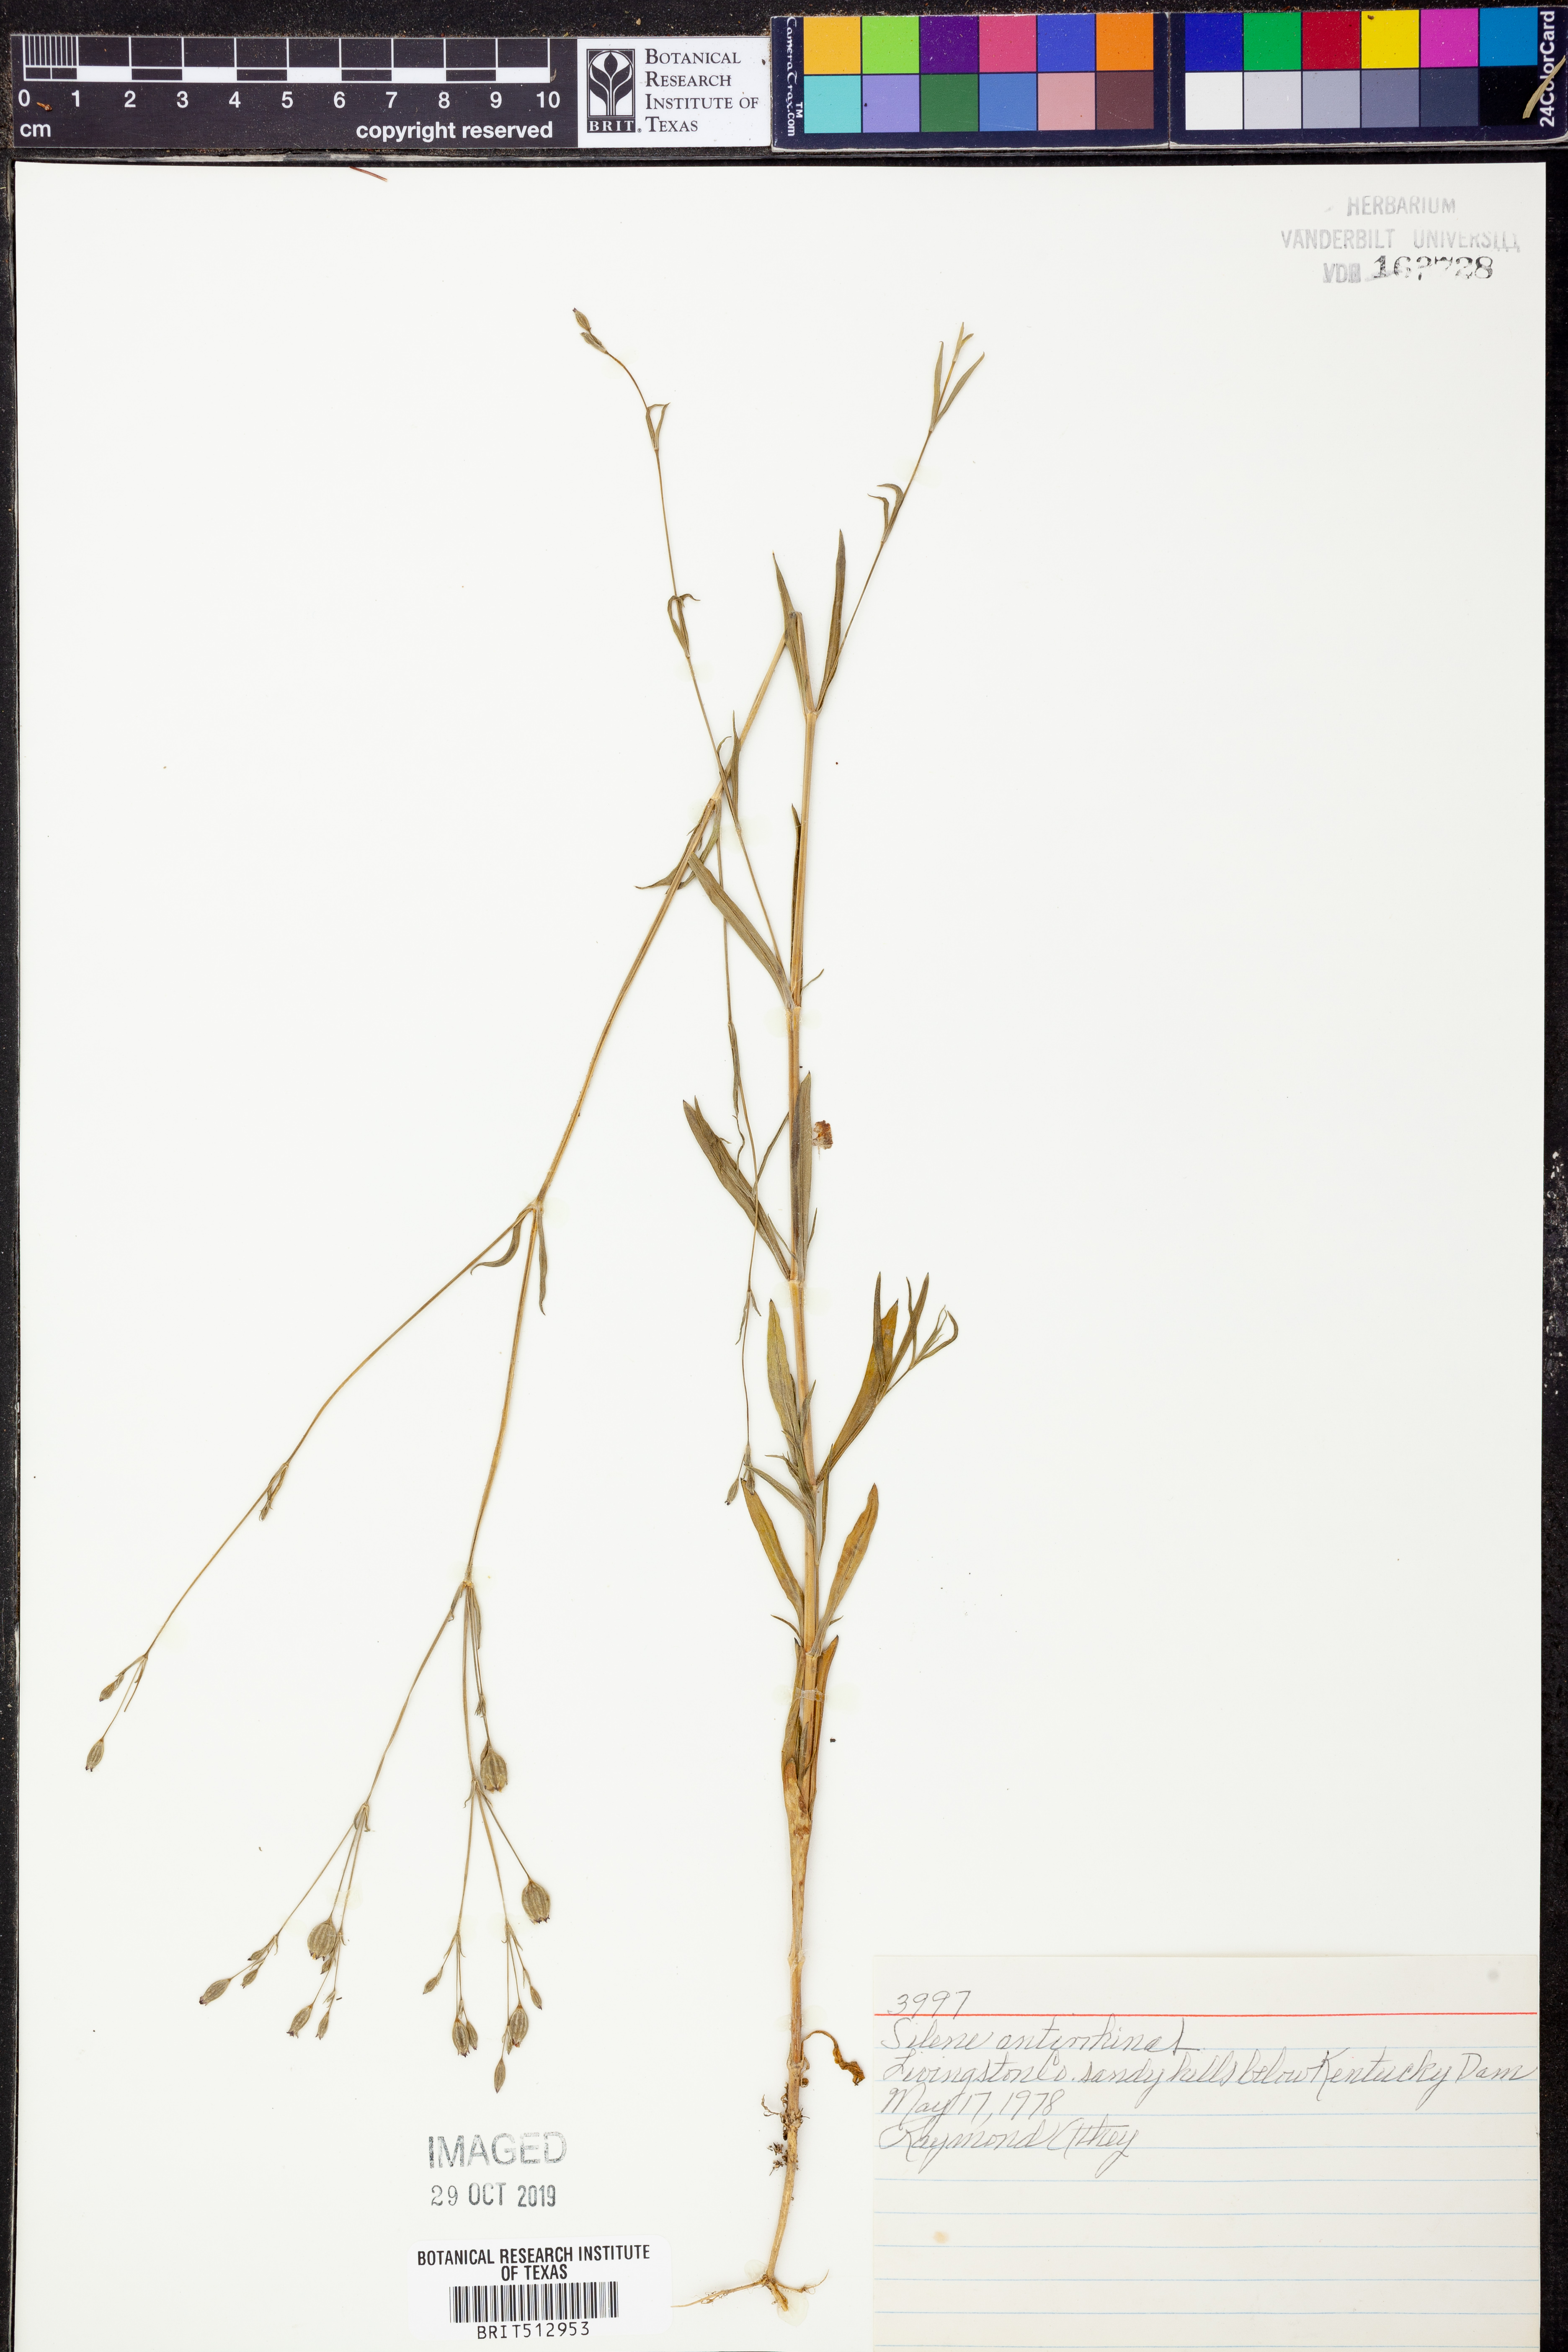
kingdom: Plantae
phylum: Tracheophyta
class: Magnoliopsida
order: Caryophyllales
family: Caryophyllaceae
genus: Silene
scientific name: Silene antirrhina
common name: Sleepy catchfly
